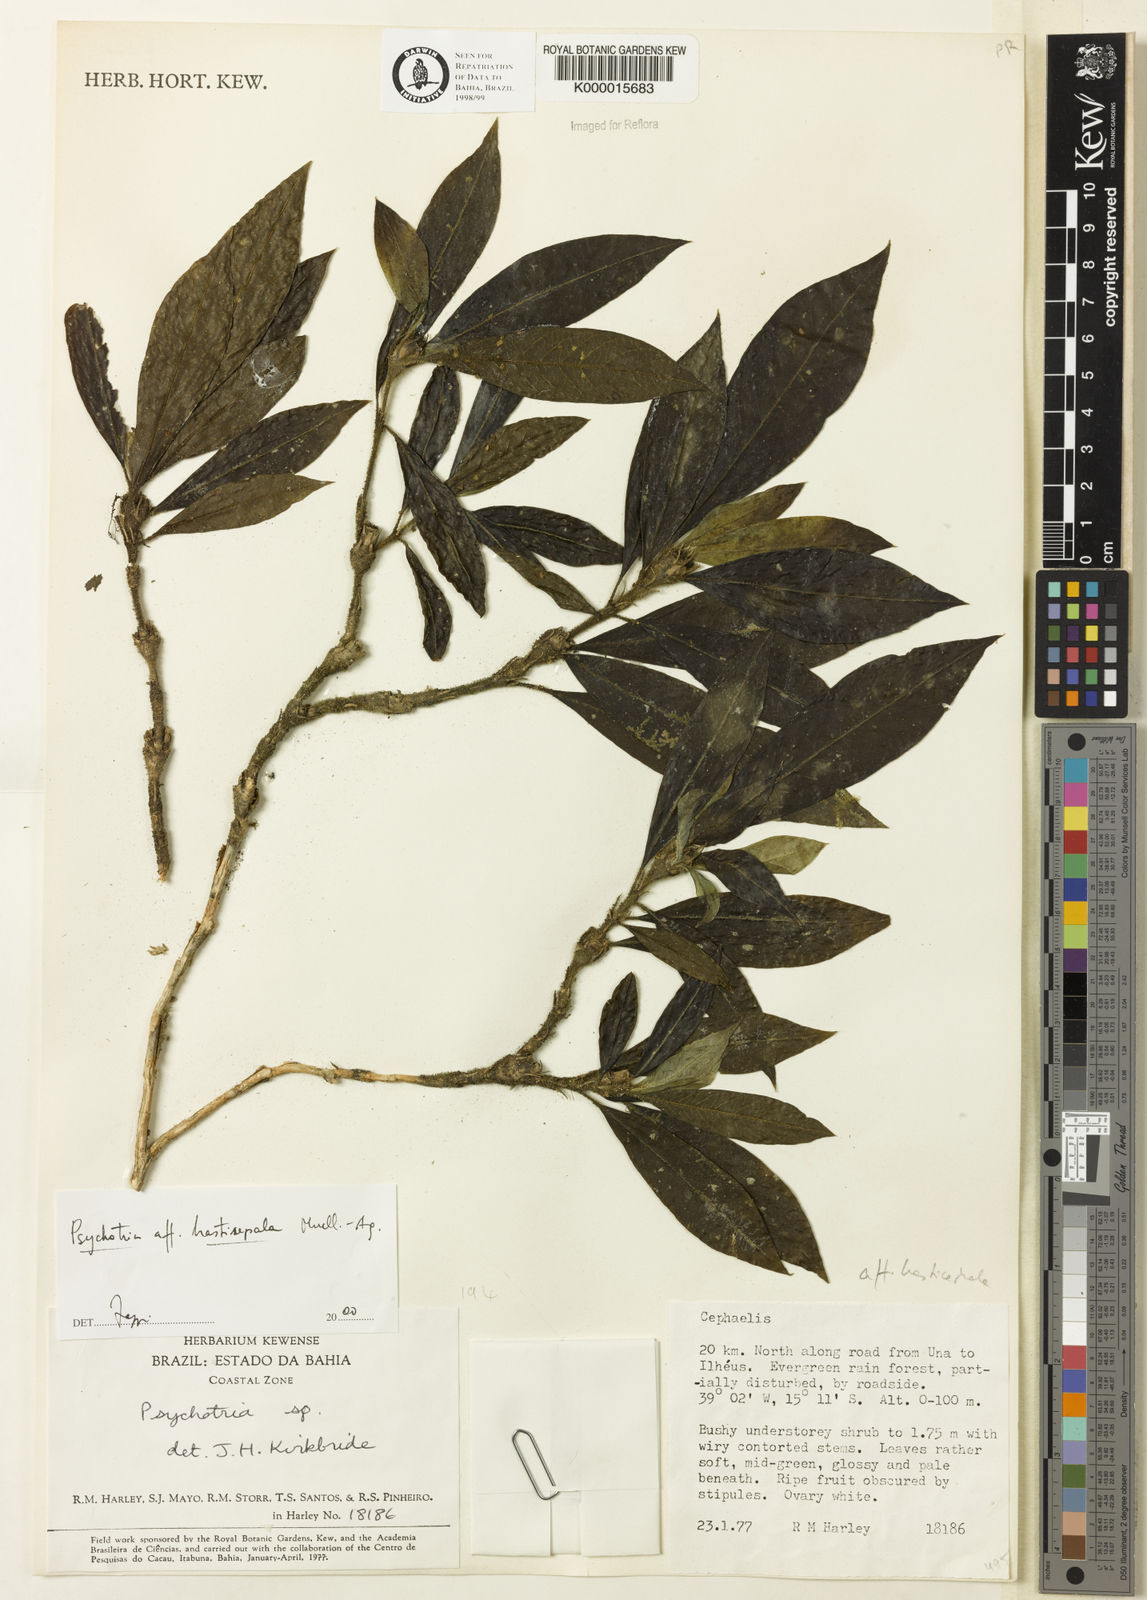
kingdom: Plantae
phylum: Tracheophyta
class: Magnoliopsida
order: Gentianales
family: Rubiaceae
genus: Psychotria
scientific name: Psychotria hastisepala
